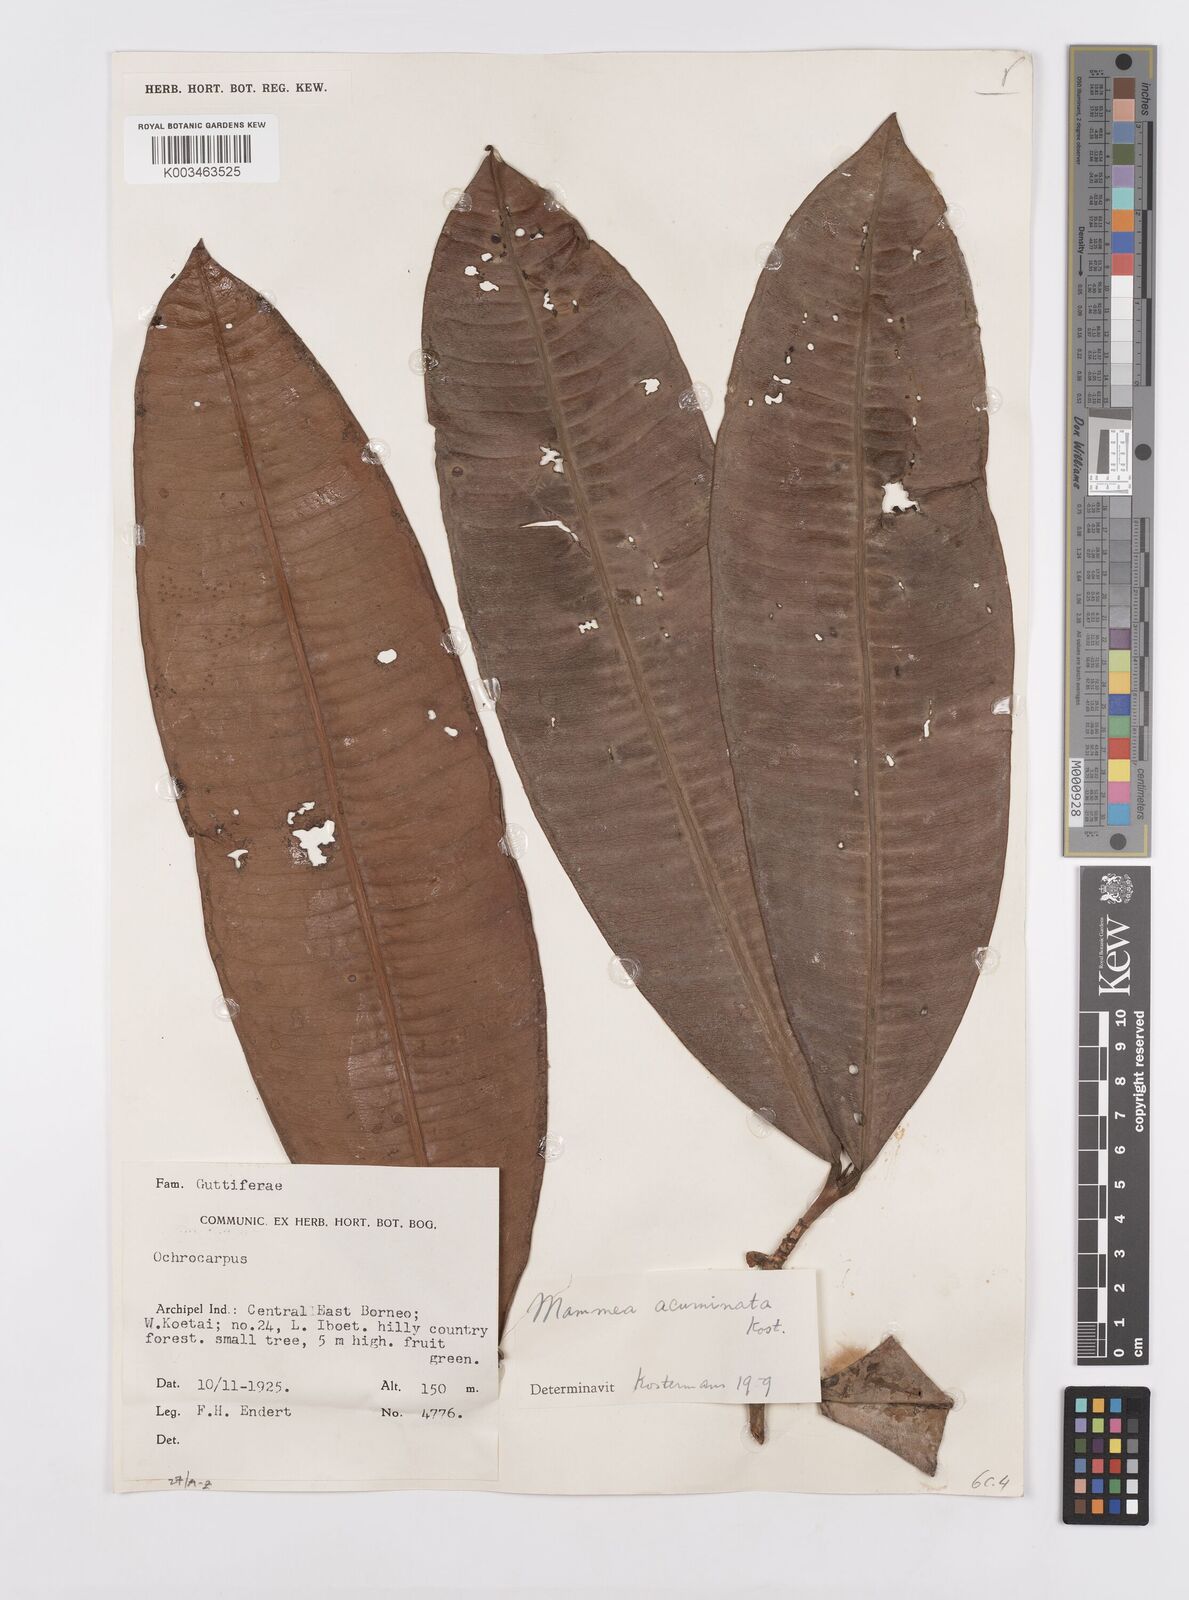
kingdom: Plantae
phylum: Tracheophyta
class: Magnoliopsida
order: Malpighiales
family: Calophyllaceae
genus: Mammea
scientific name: Mammea acuminata
